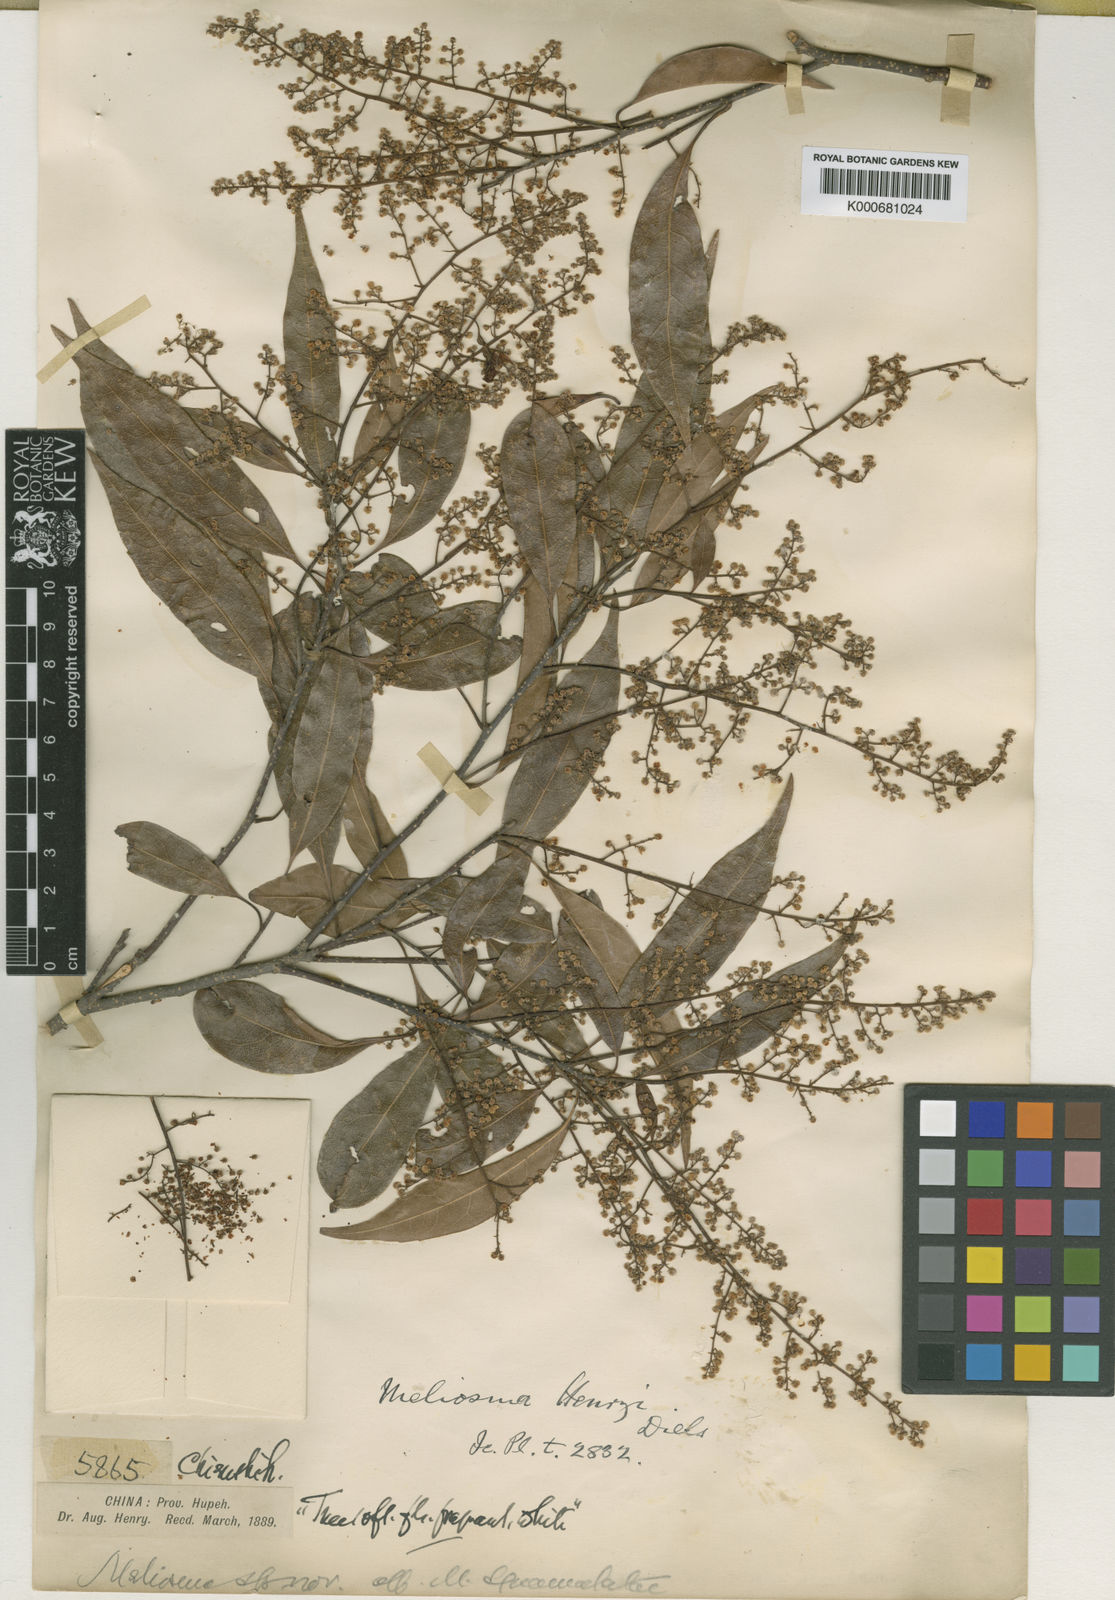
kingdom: Plantae
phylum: Tracheophyta
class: Magnoliopsida
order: Proteales
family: Sabiaceae
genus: Meliosma
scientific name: Meliosma henryi
